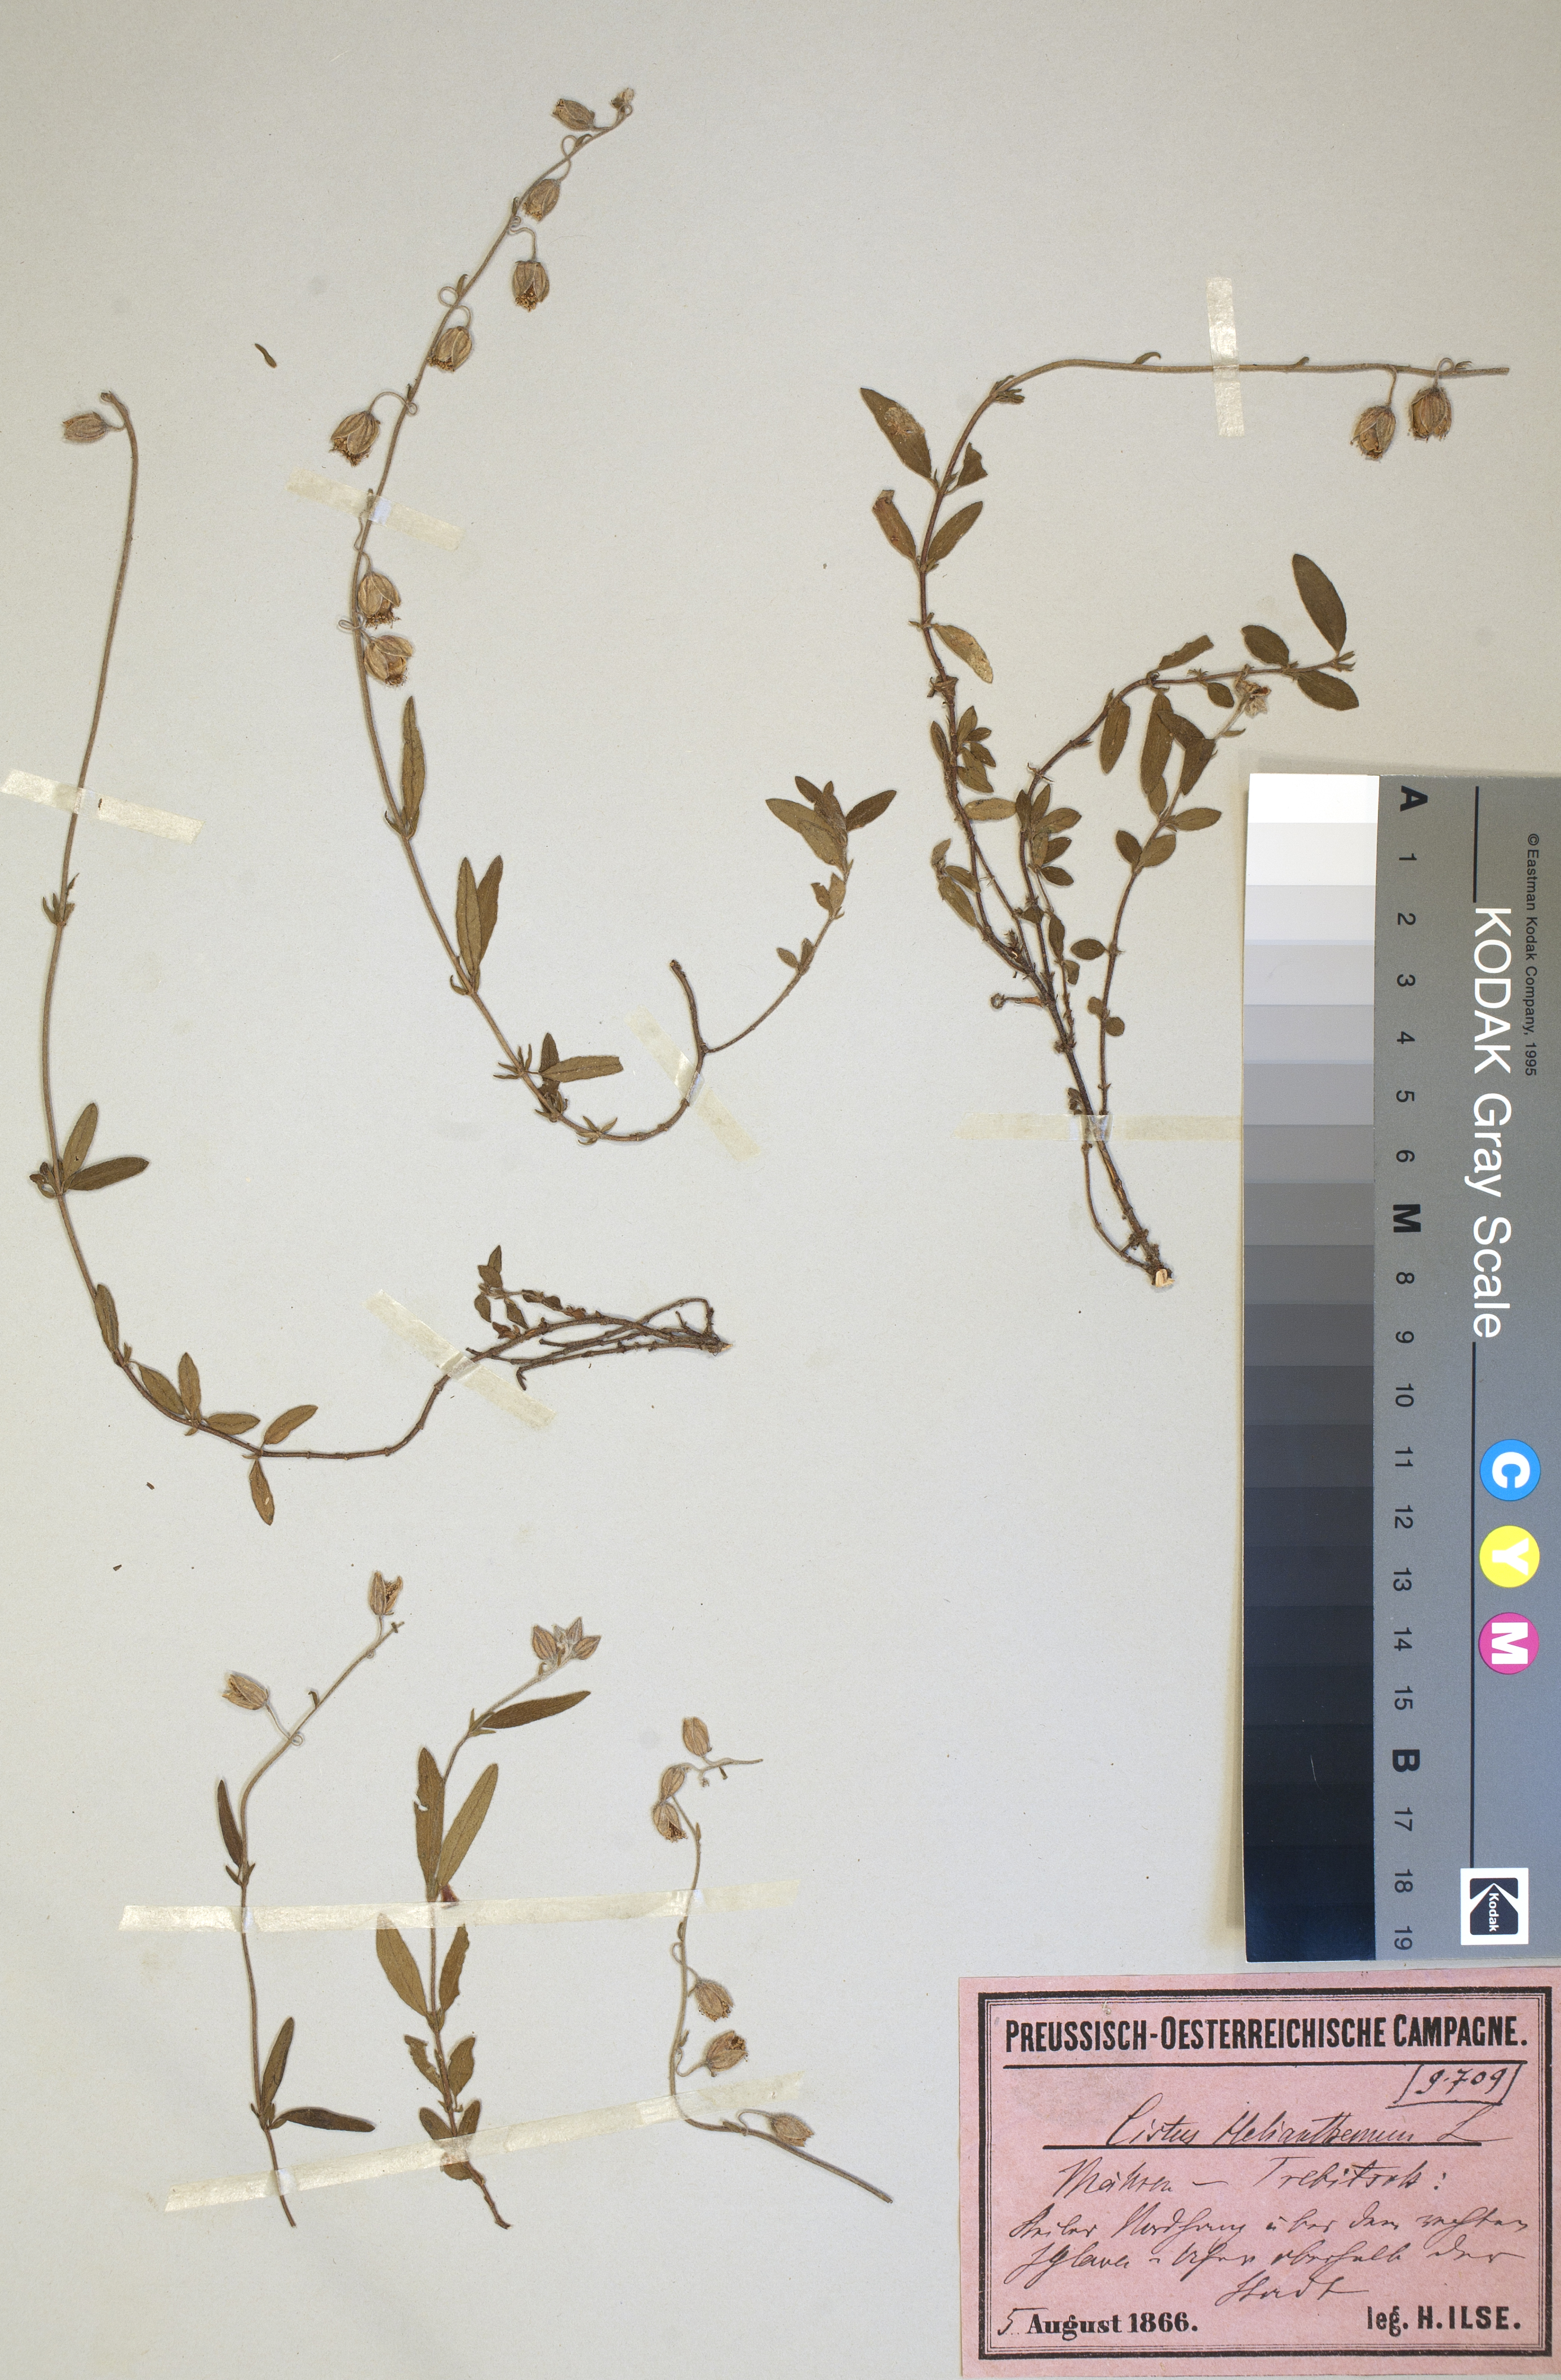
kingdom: Plantae
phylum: Tracheophyta
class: Magnoliopsida
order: Malvales
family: Cistaceae
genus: Helianthemum
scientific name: Helianthemum nummularium
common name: Common rock-rose
